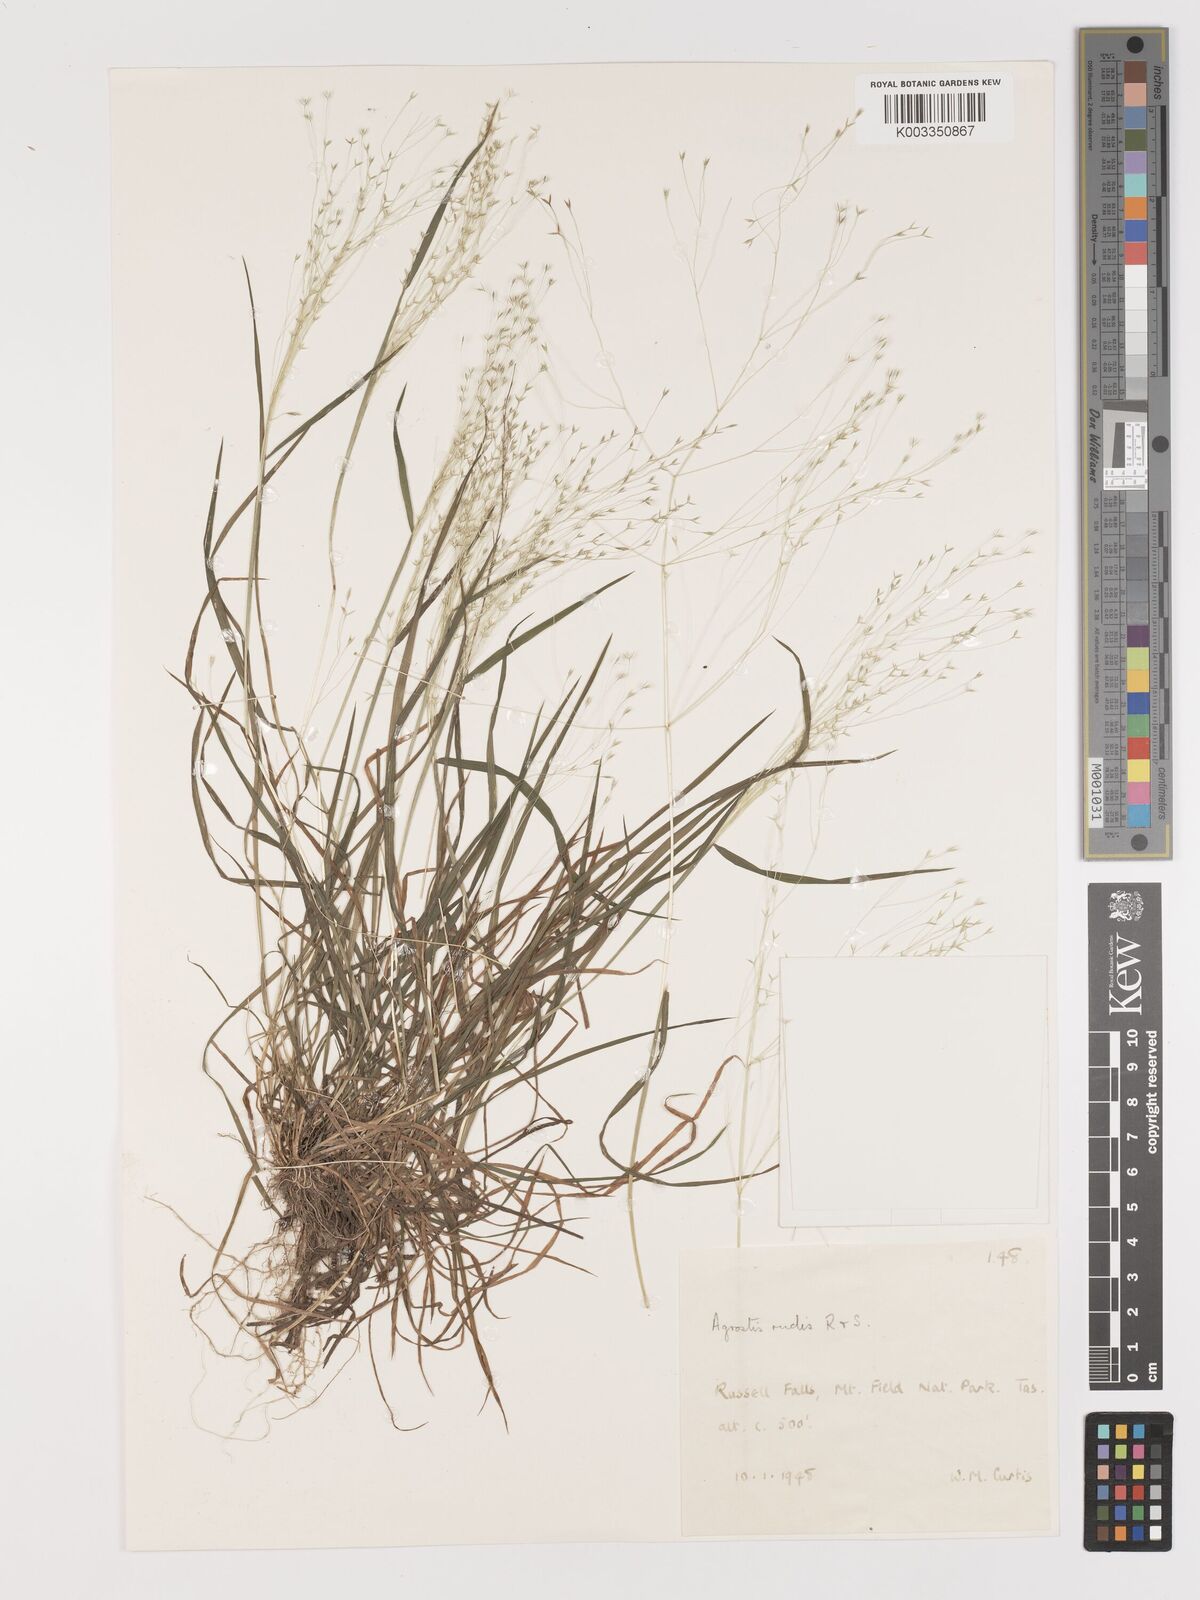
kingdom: Plantae
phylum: Tracheophyta
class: Liliopsida
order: Poales
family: Poaceae
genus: Lachnagrostis
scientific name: Lachnagrostis rudis
